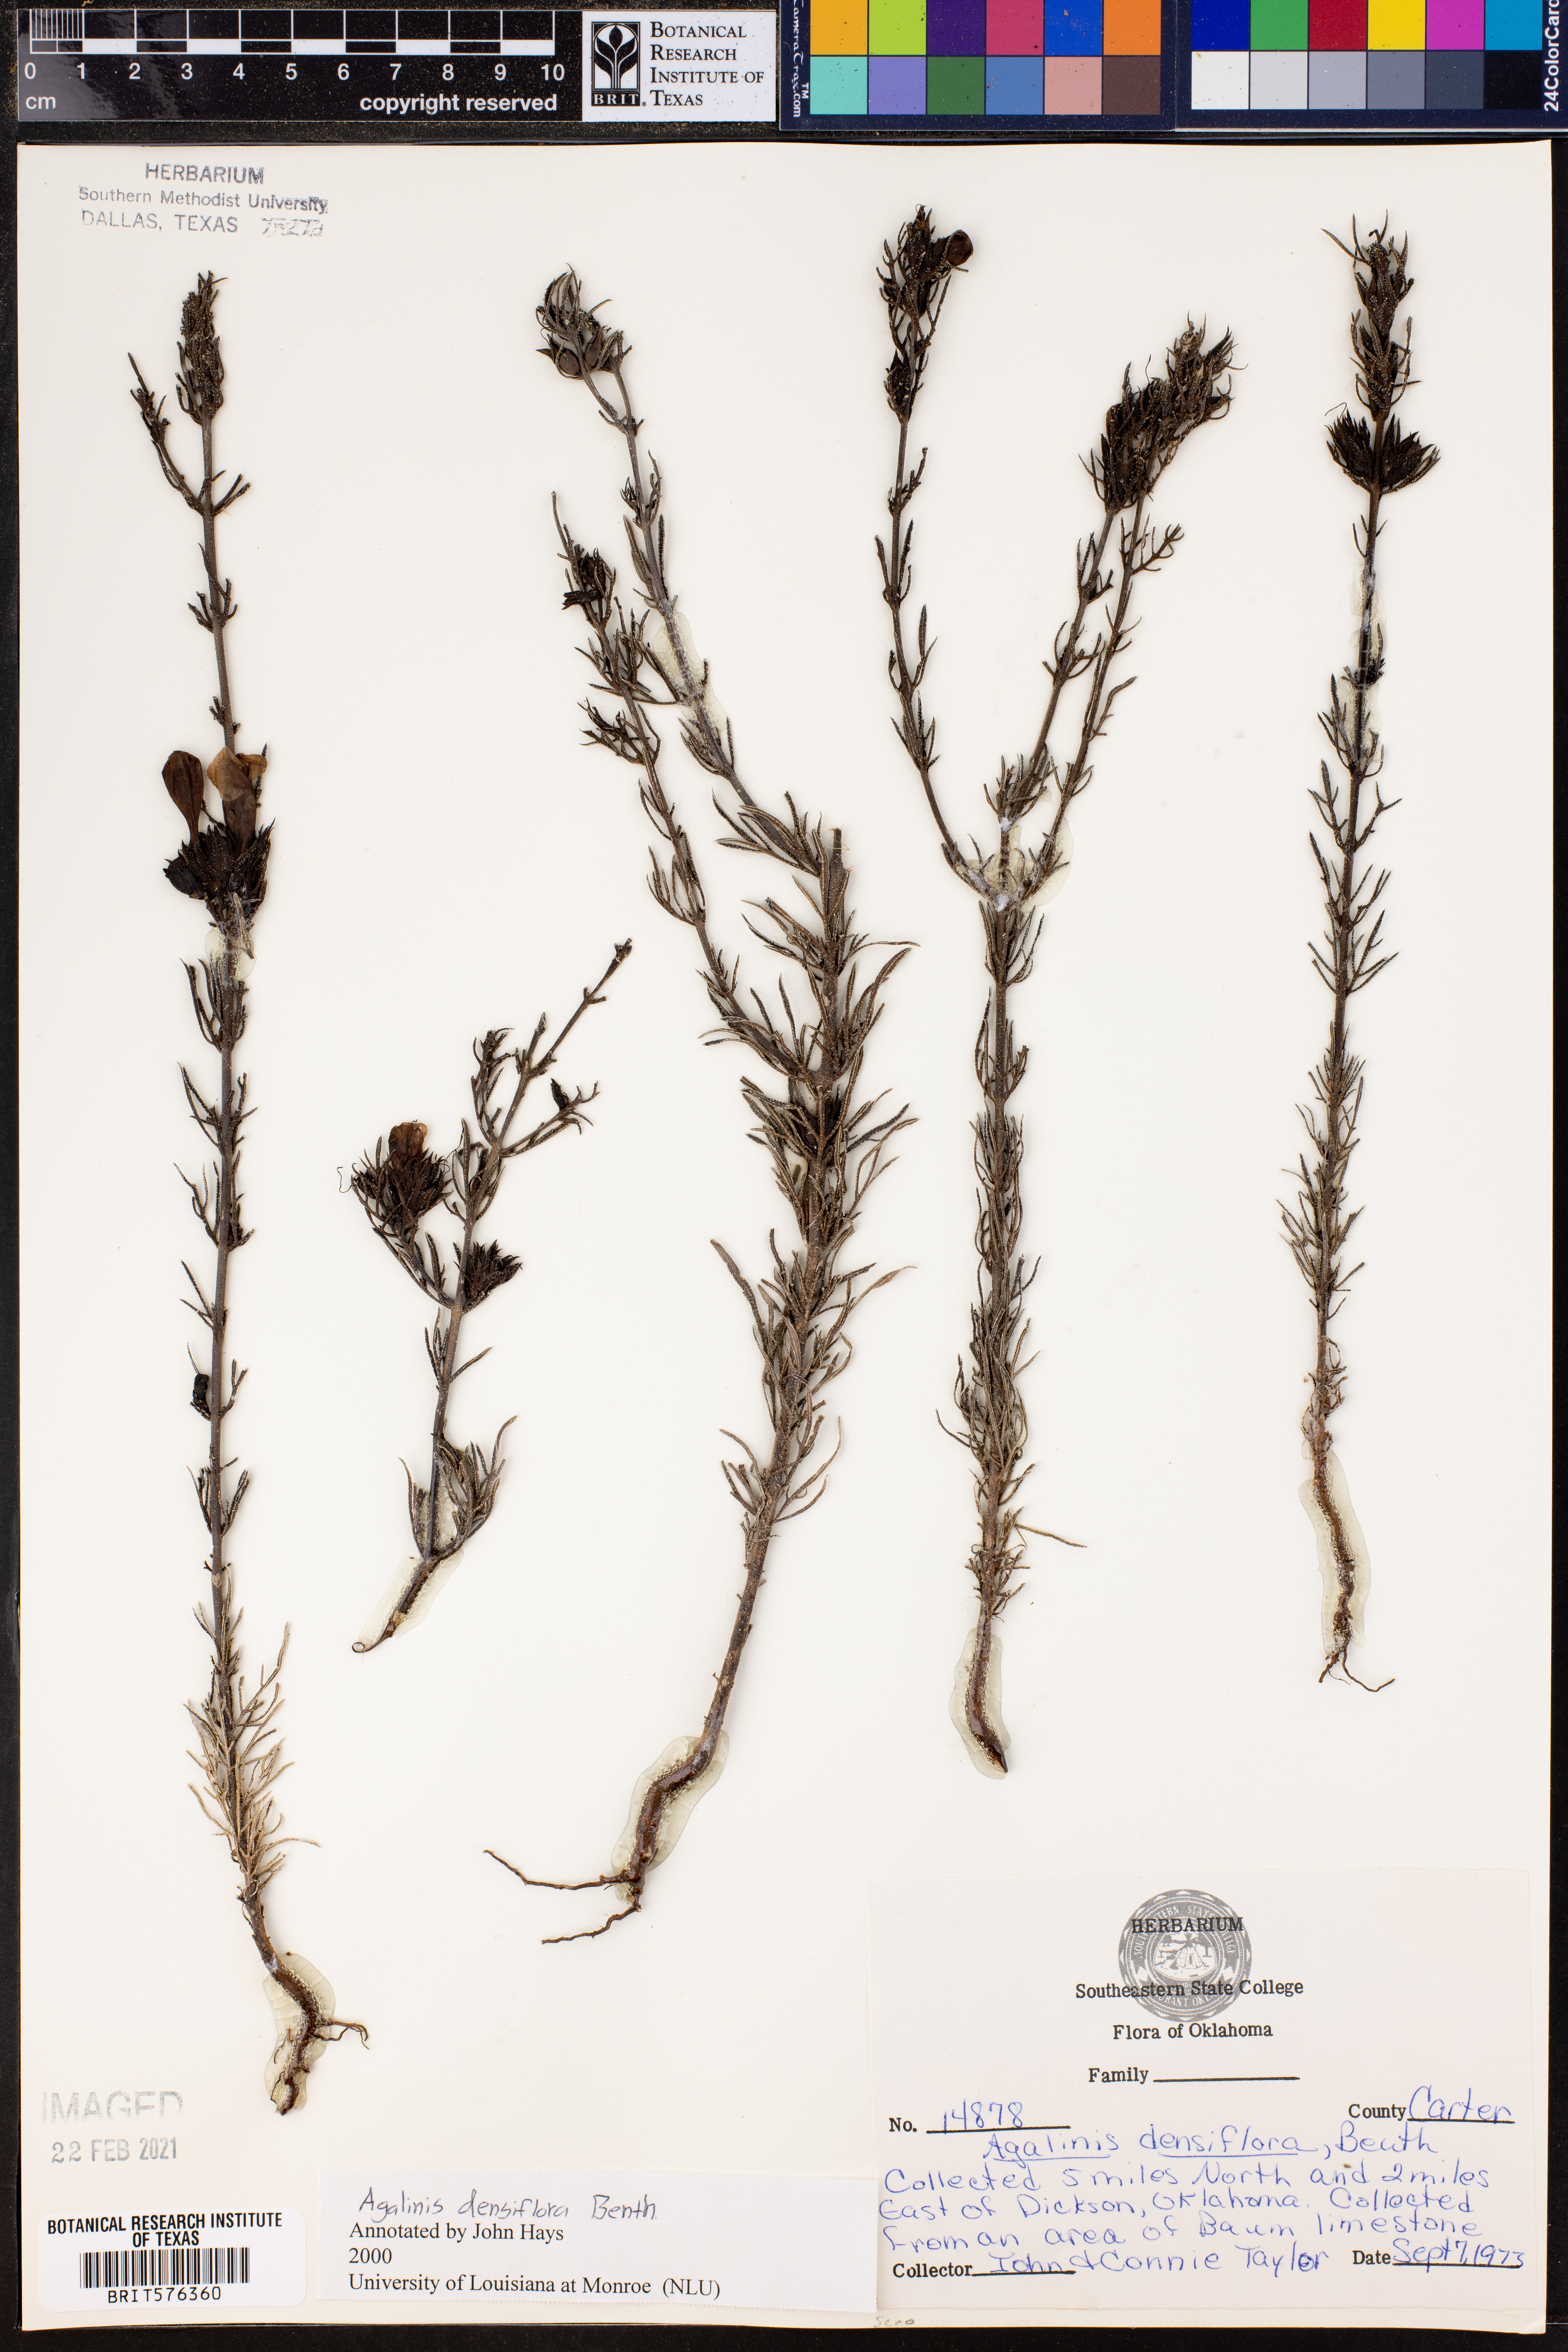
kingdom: Plantae
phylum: Tracheophyta
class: Magnoliopsida
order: Lamiales
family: Orobanchaceae
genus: Agalinis
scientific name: Agalinis densiflora
